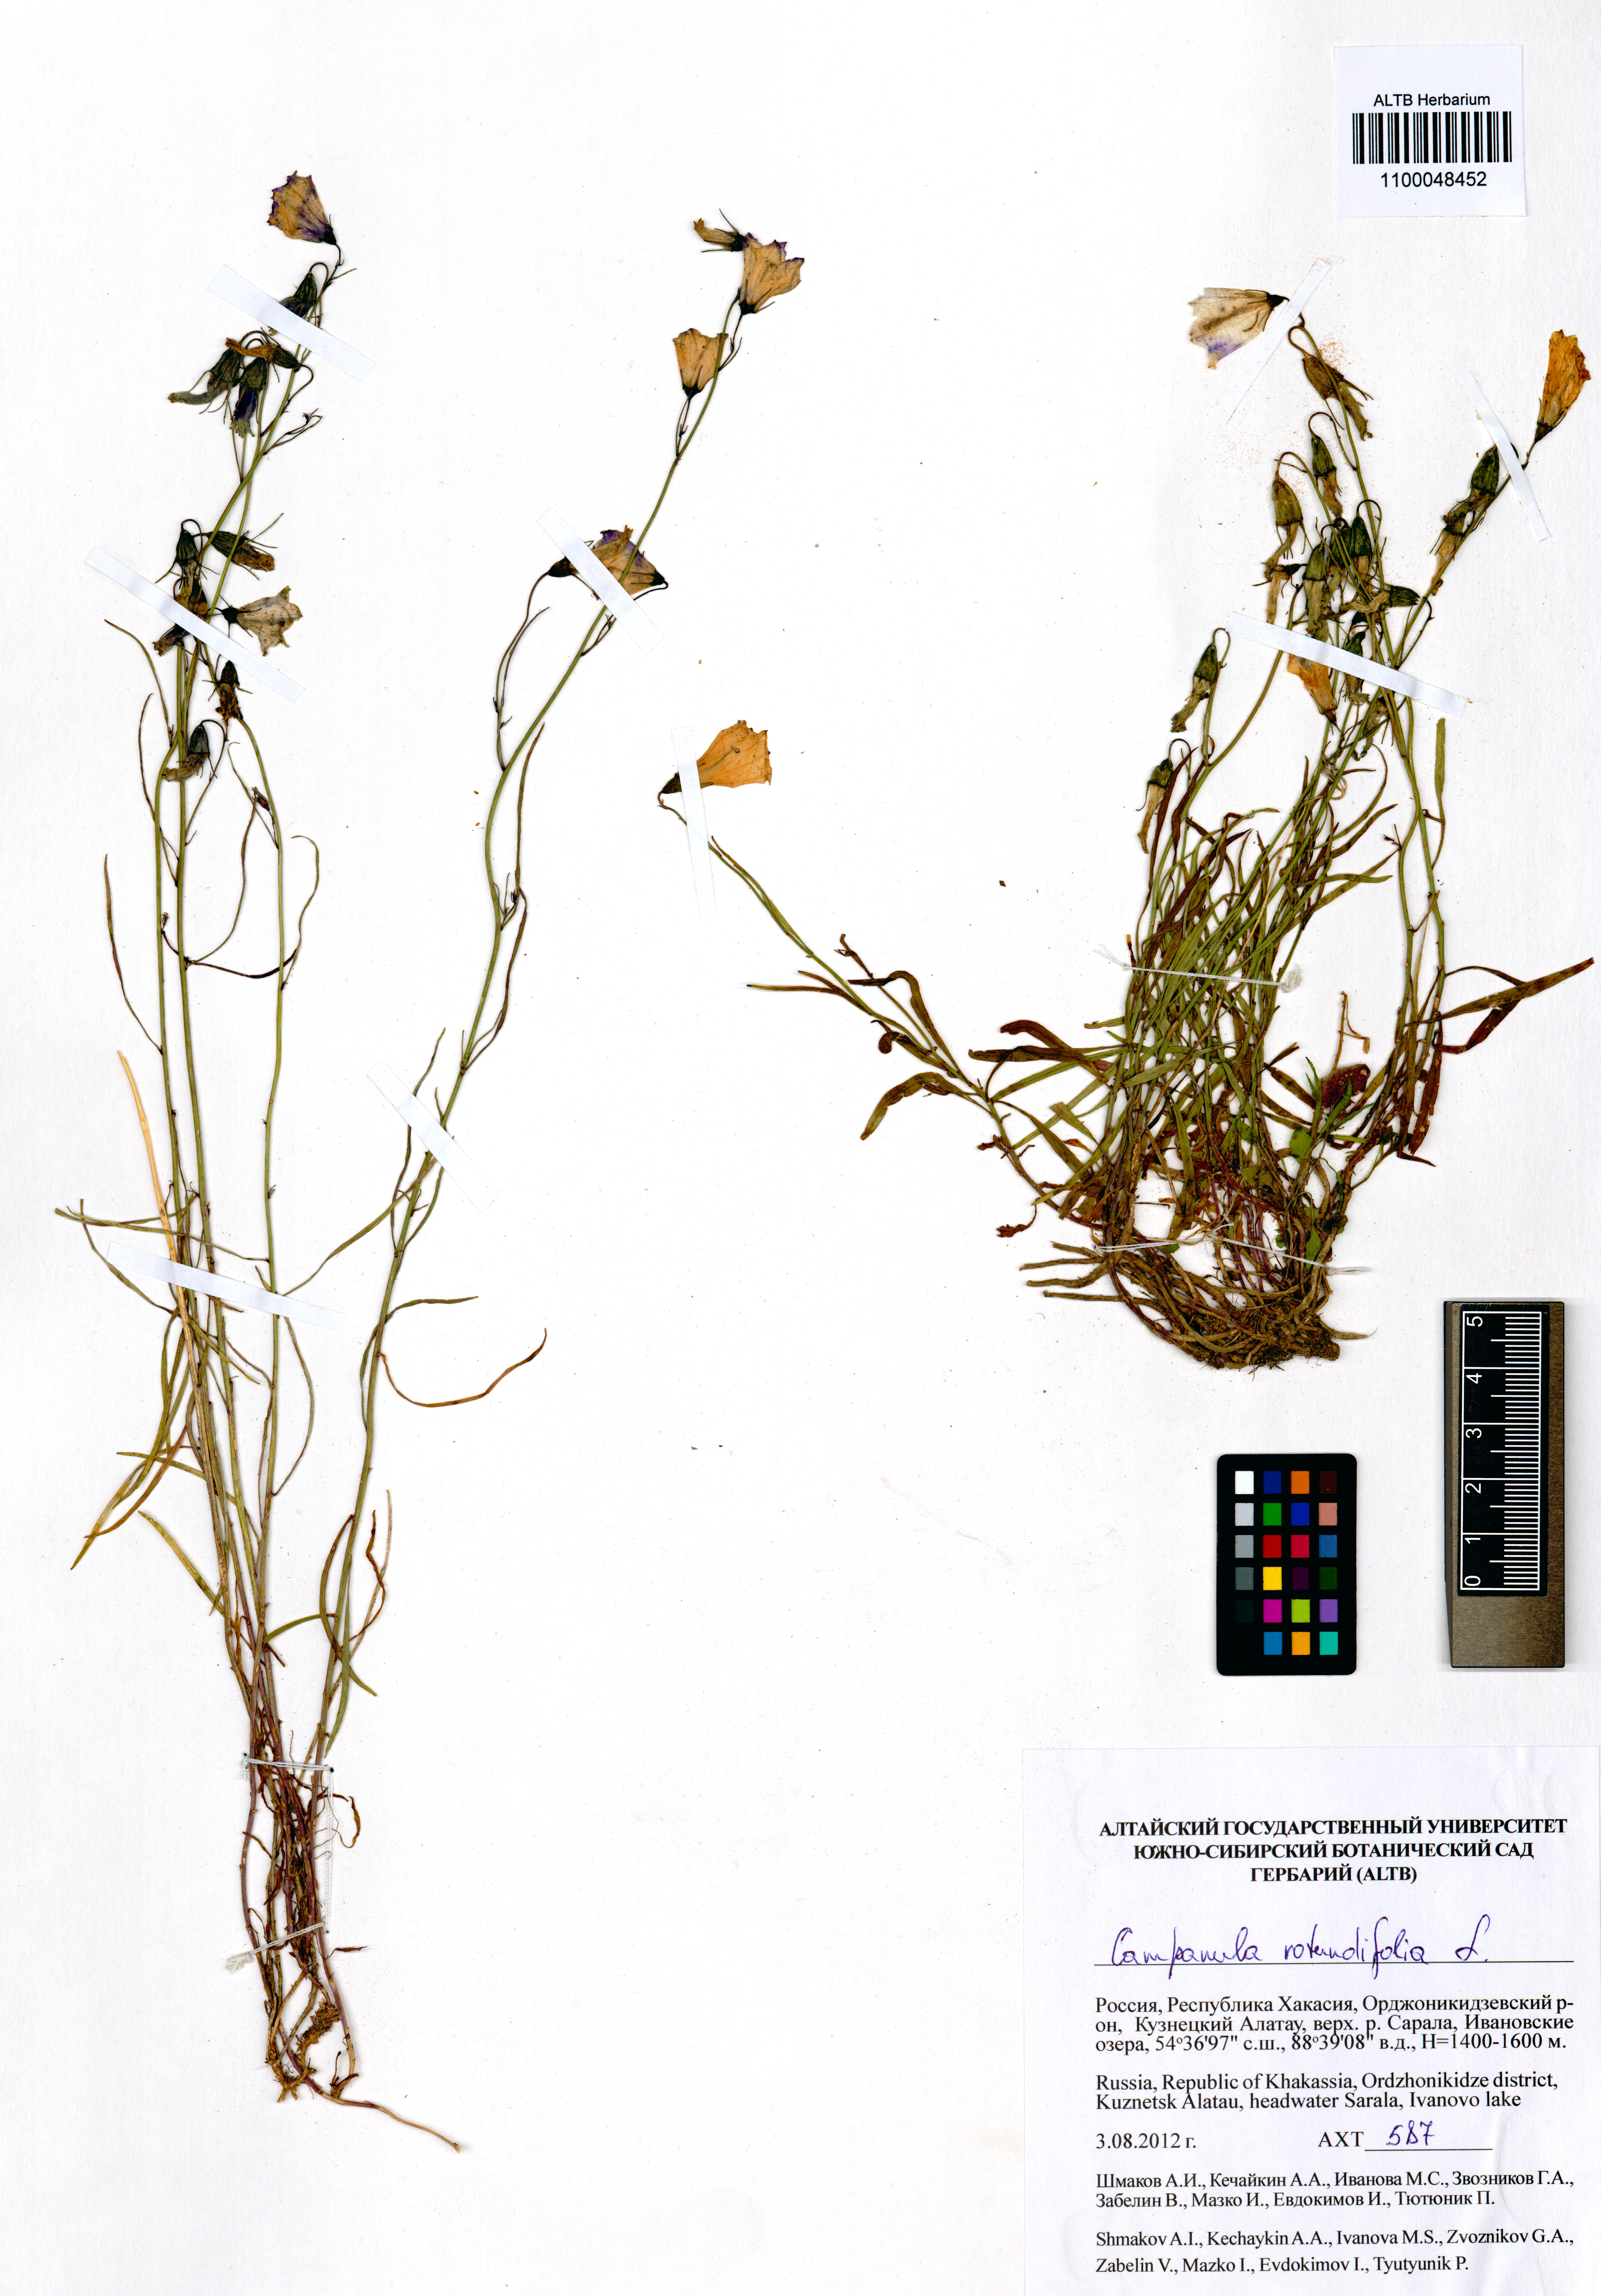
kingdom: Plantae
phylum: Tracheophyta
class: Magnoliopsida
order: Asterales
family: Campanulaceae
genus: Campanula
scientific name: Campanula rotundifolia
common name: Harebell
